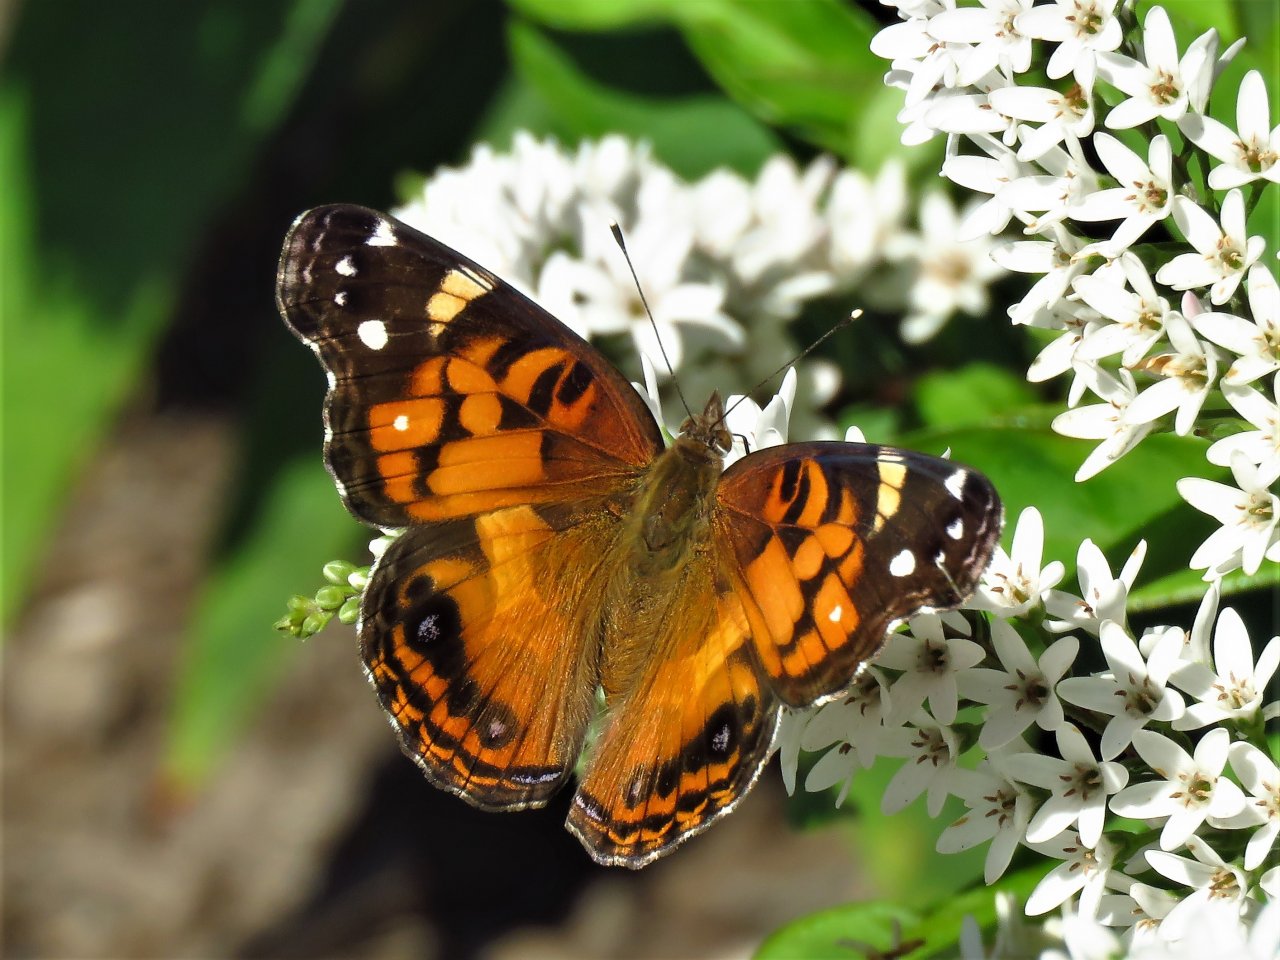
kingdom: Animalia
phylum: Arthropoda
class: Insecta
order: Lepidoptera
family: Nymphalidae
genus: Vanessa
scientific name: Vanessa virginiensis
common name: American Lady
